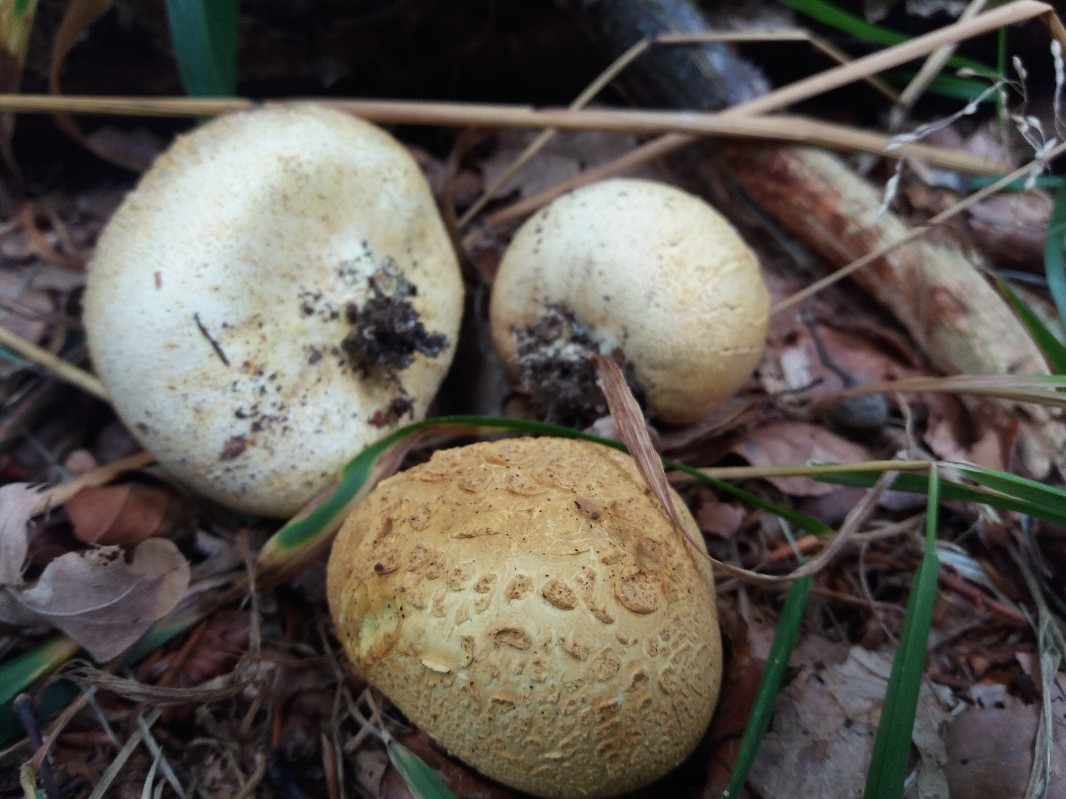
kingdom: Fungi
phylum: Basidiomycota
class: Agaricomycetes
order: Boletales
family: Sclerodermataceae
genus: Scleroderma
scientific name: Scleroderma citrinum
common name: almindelig bruskbold
